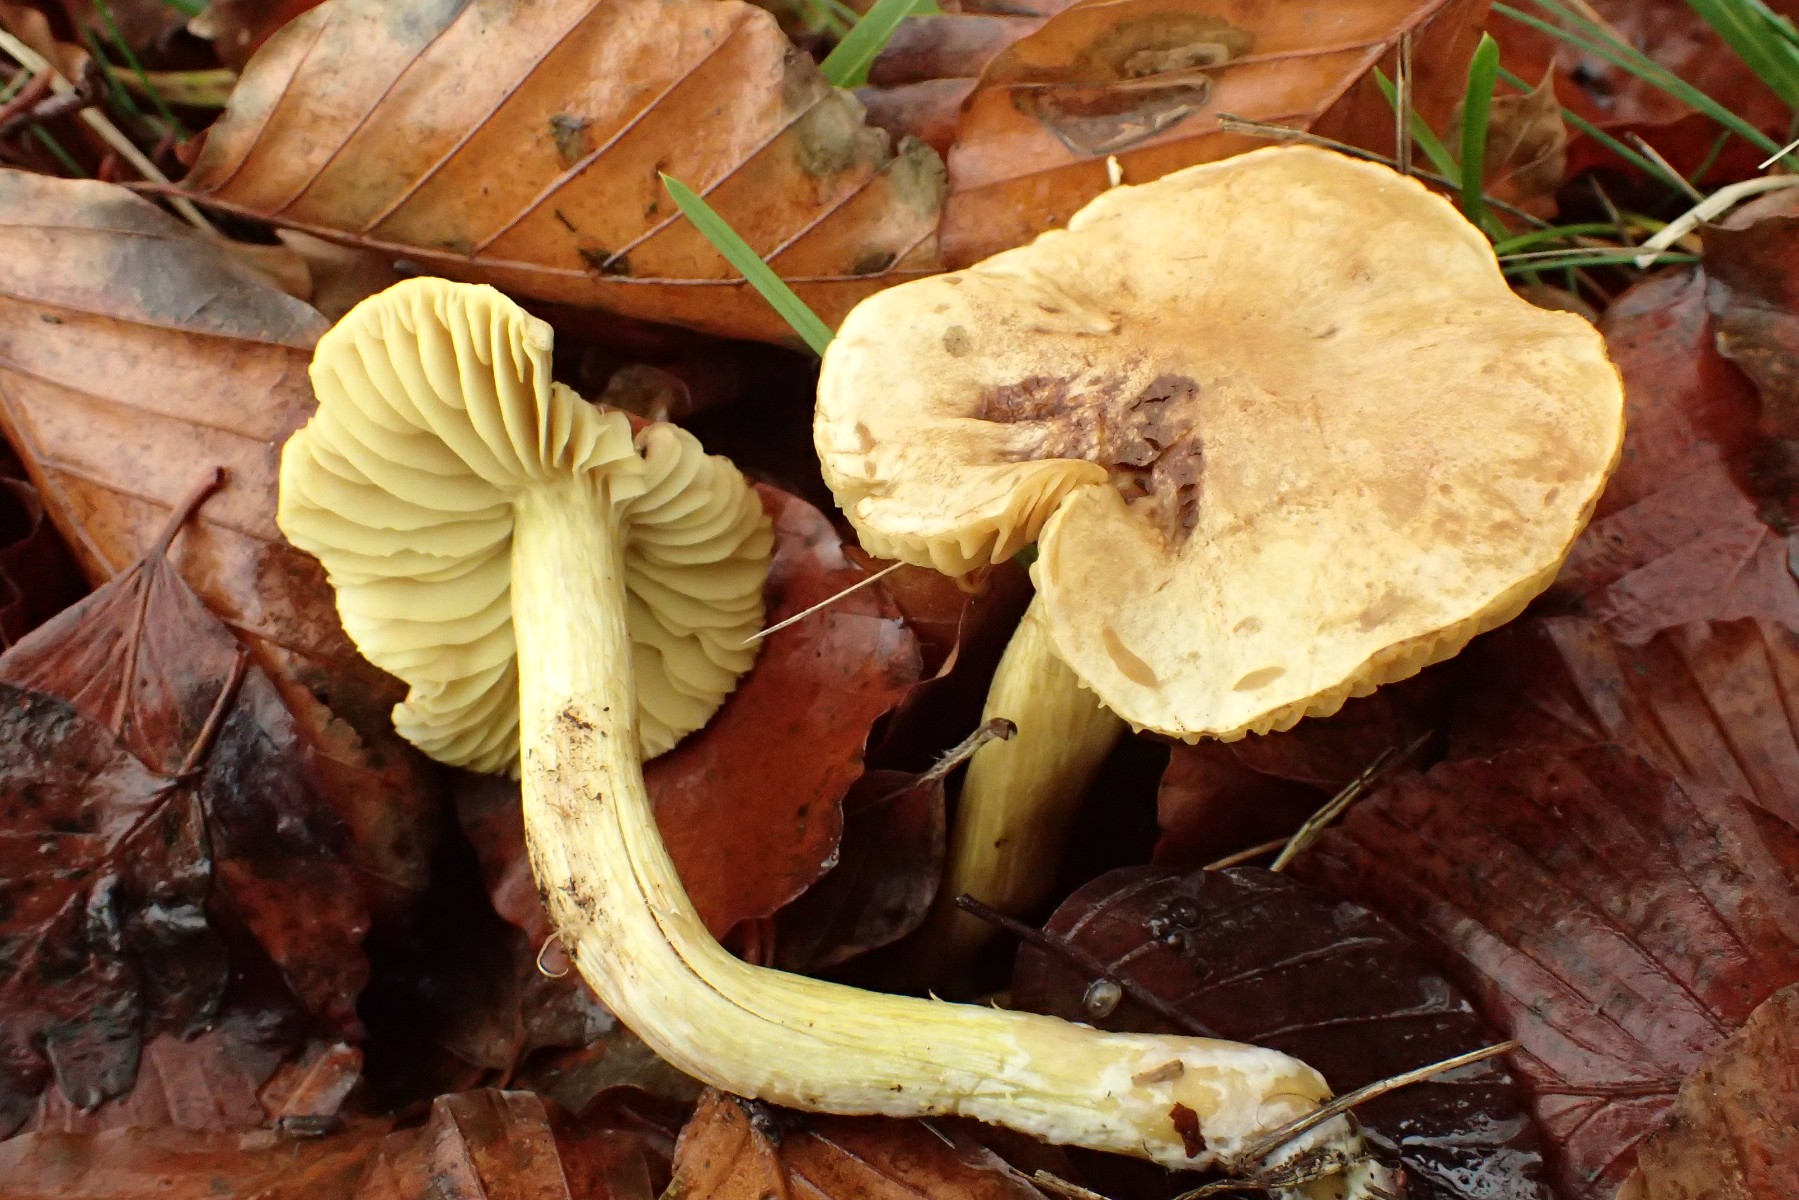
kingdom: Fungi
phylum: Basidiomycota
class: Agaricomycetes
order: Agaricales
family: Tricholomataceae
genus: Tricholoma
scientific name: Tricholoma sulphureum
